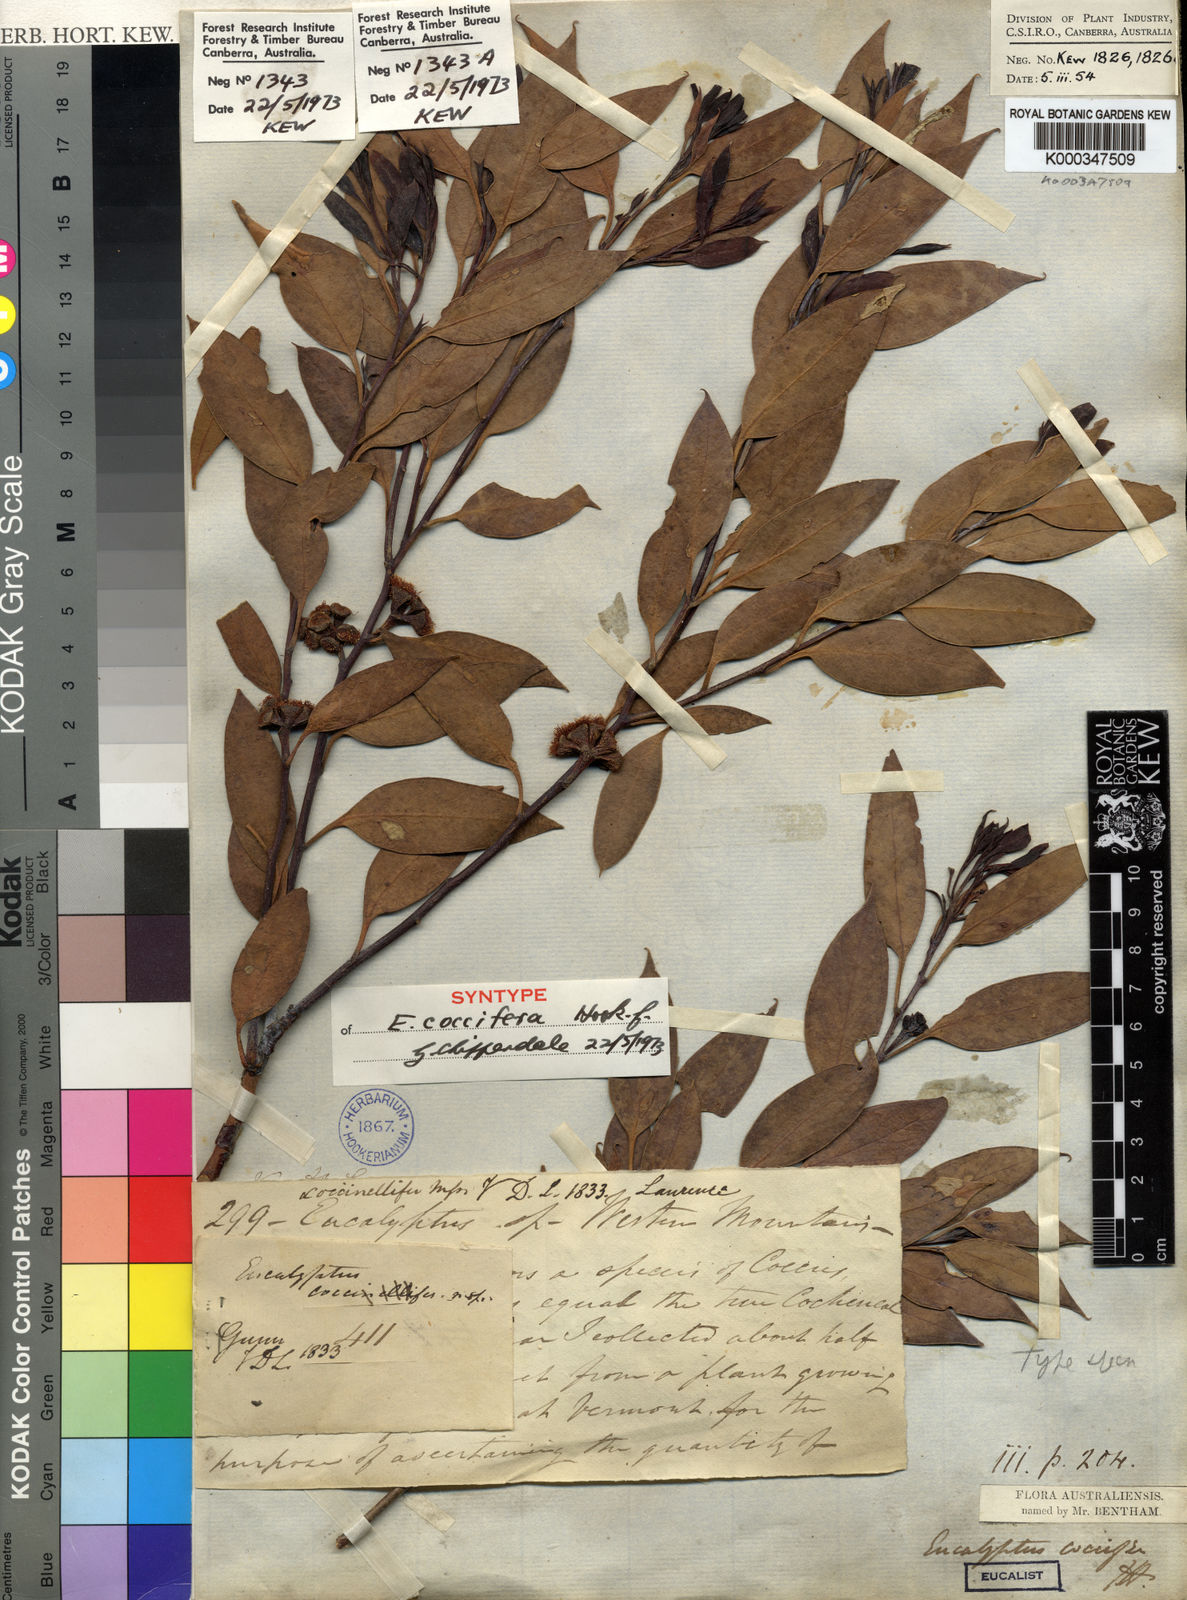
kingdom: Plantae
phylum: Tracheophyta
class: Magnoliopsida
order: Myrtales
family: Myrtaceae
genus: Eucalyptus
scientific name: Eucalyptus coccifera
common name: Tasmanian snow-gum
